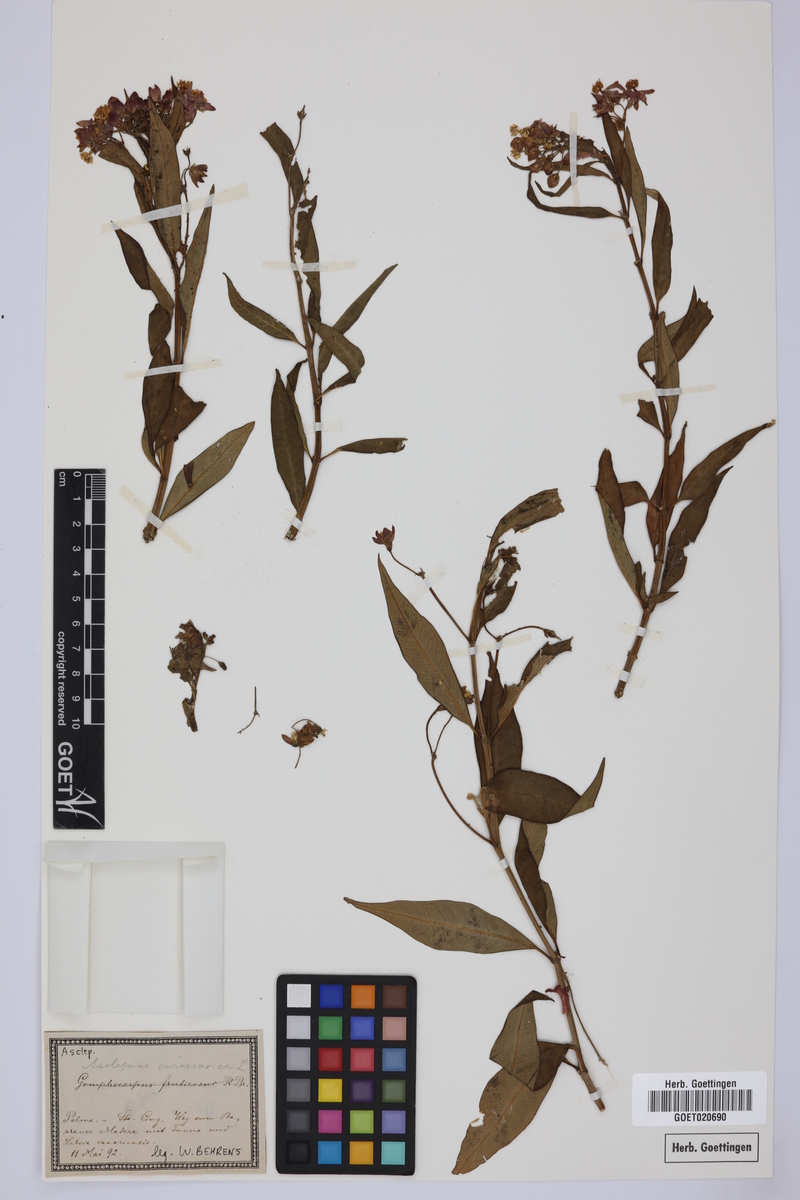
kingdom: Plantae
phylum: Tracheophyta
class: Magnoliopsida
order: Gentianales
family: Apocynaceae
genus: Asclepias
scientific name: Asclepias curassavica
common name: Bloodflower
